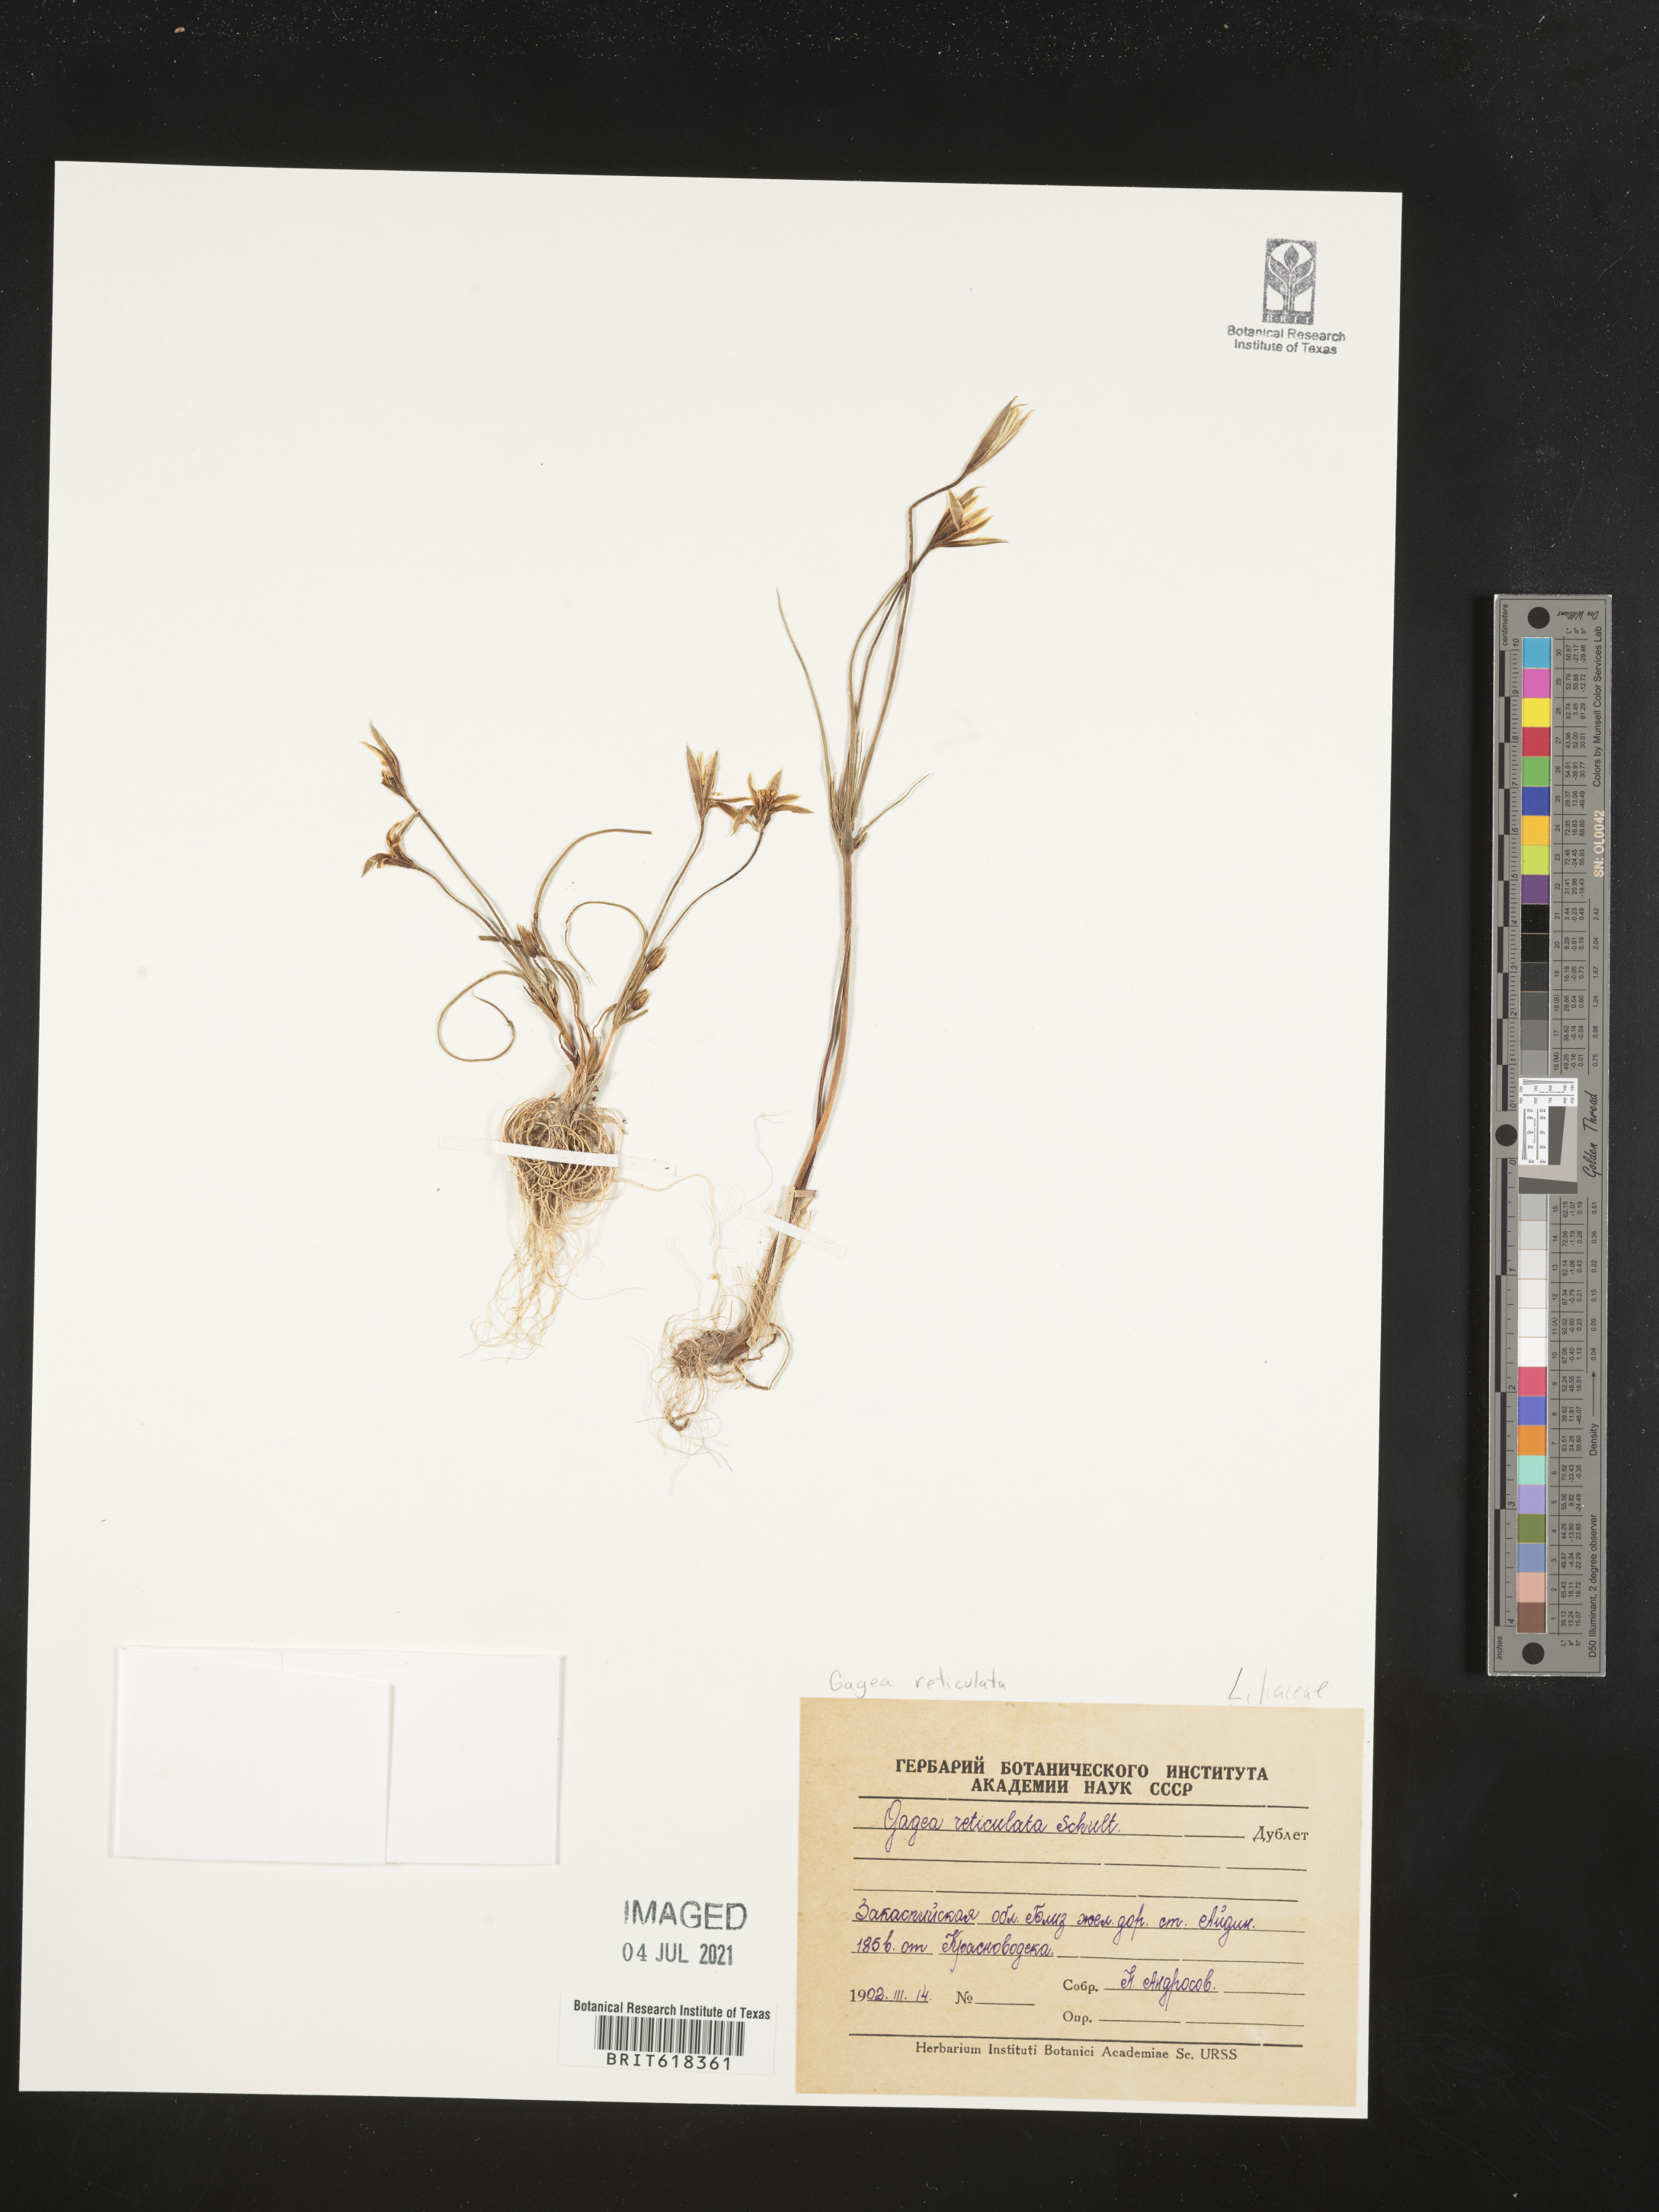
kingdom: Plantae
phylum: Tracheophyta
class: Liliopsida
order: Liliales
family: Liliaceae
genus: Gagea
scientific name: Gagea reticulata
